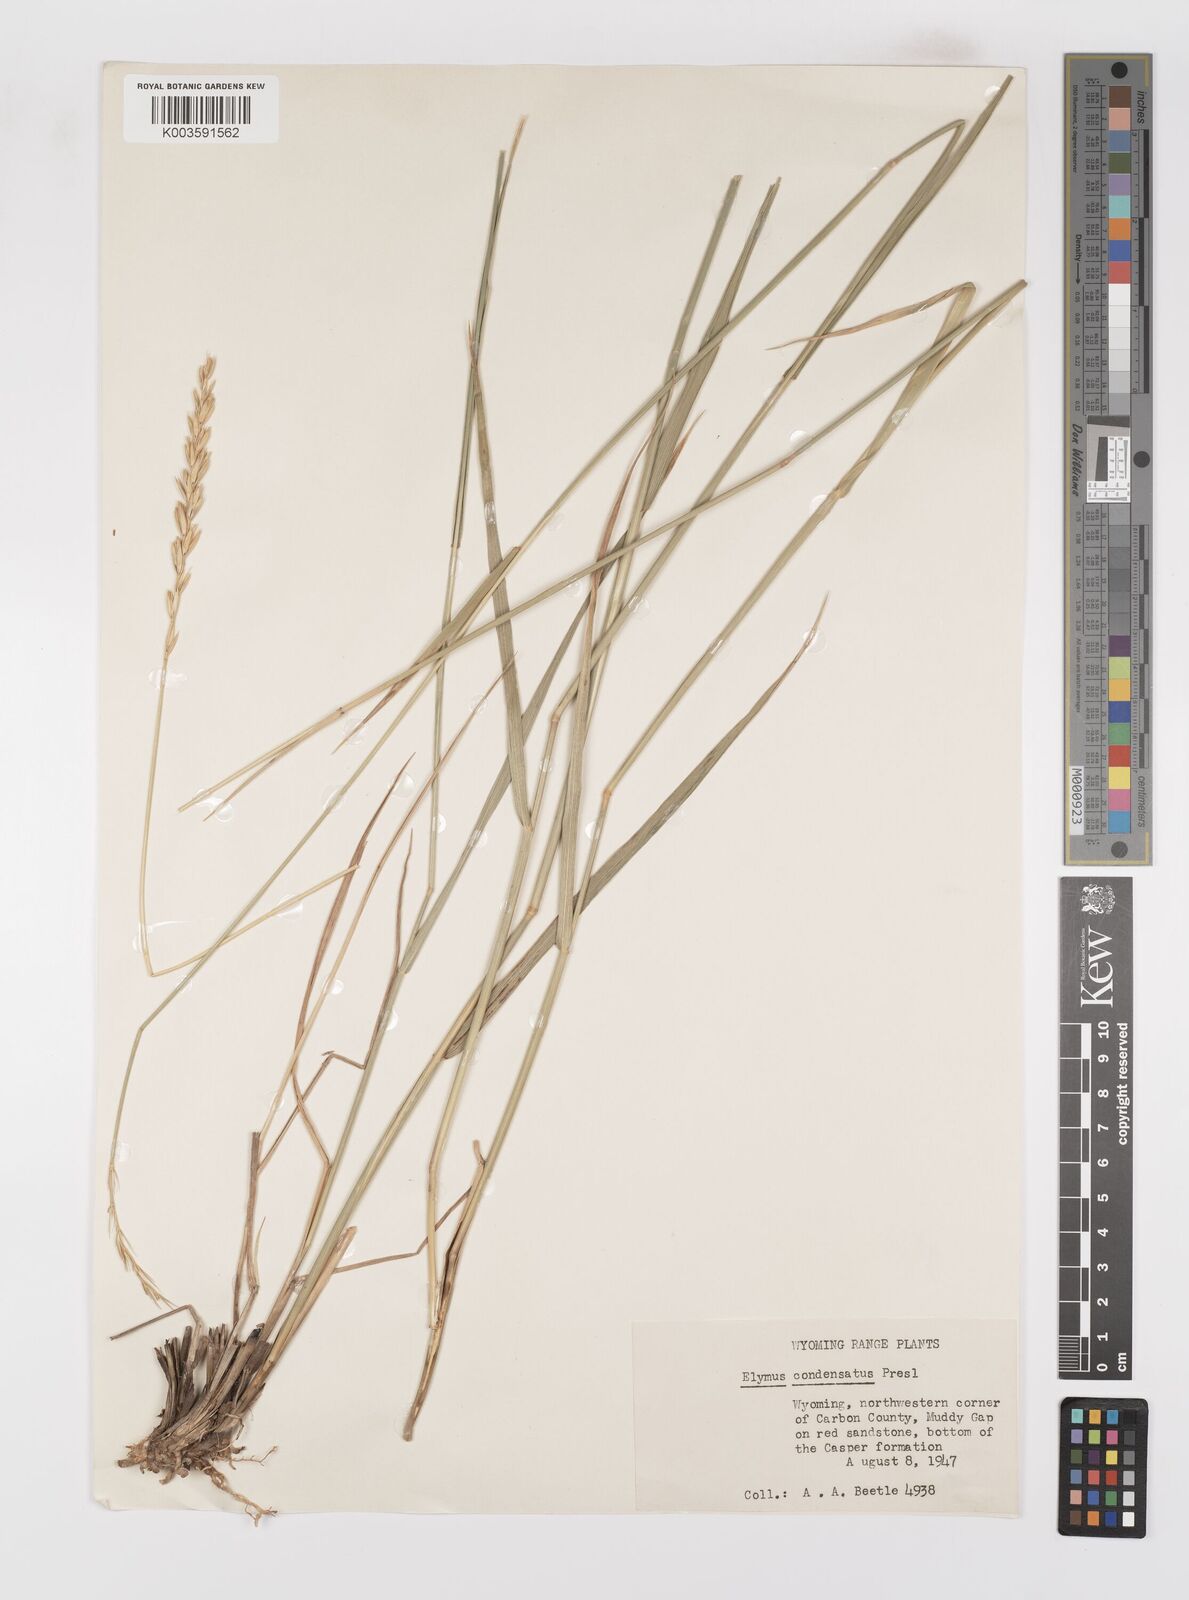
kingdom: Plantae
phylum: Tracheophyta
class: Liliopsida
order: Poales
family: Poaceae
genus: Leymus
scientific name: Leymus condensatus
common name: Giant wild rye
